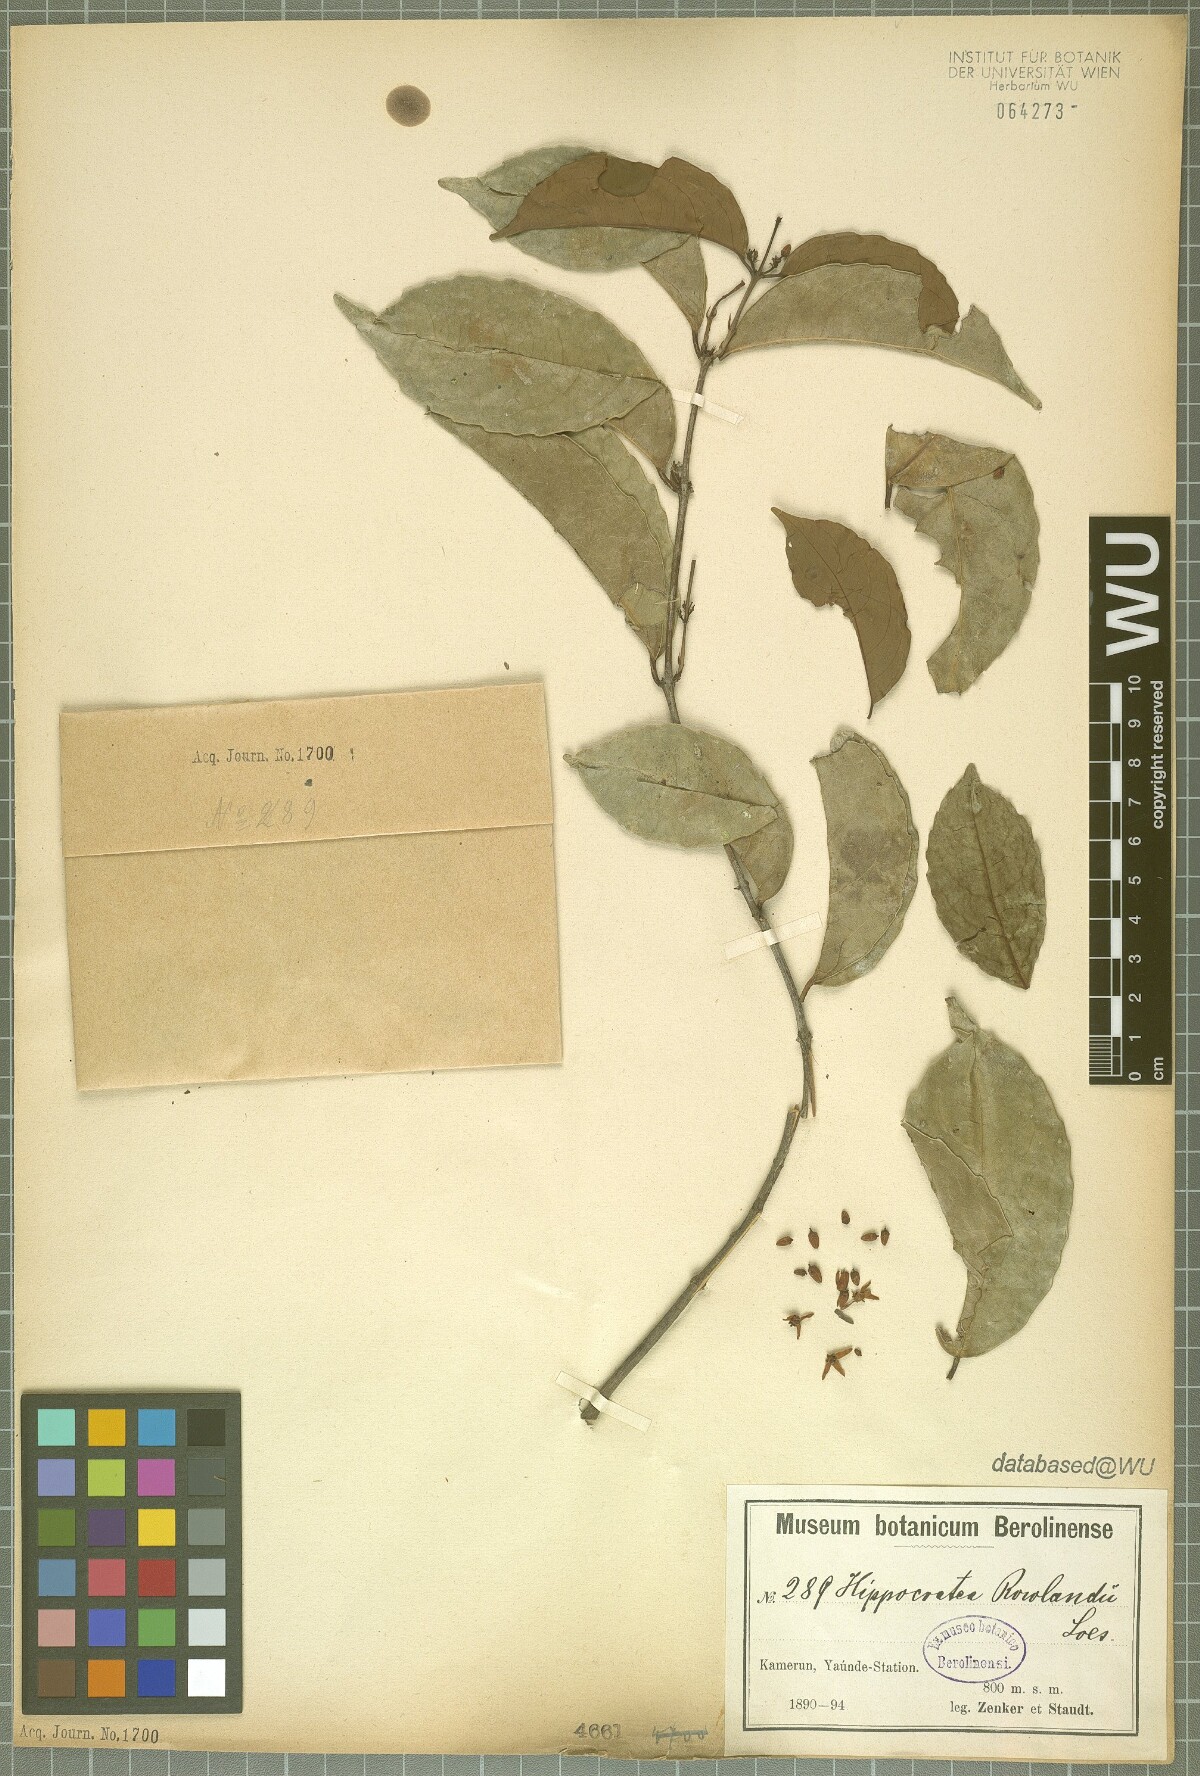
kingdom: Plantae
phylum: Tracheophyta
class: Magnoliopsida
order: Celastrales
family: Celastraceae
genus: Loeseneriella
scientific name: Loeseneriella rowlandii
